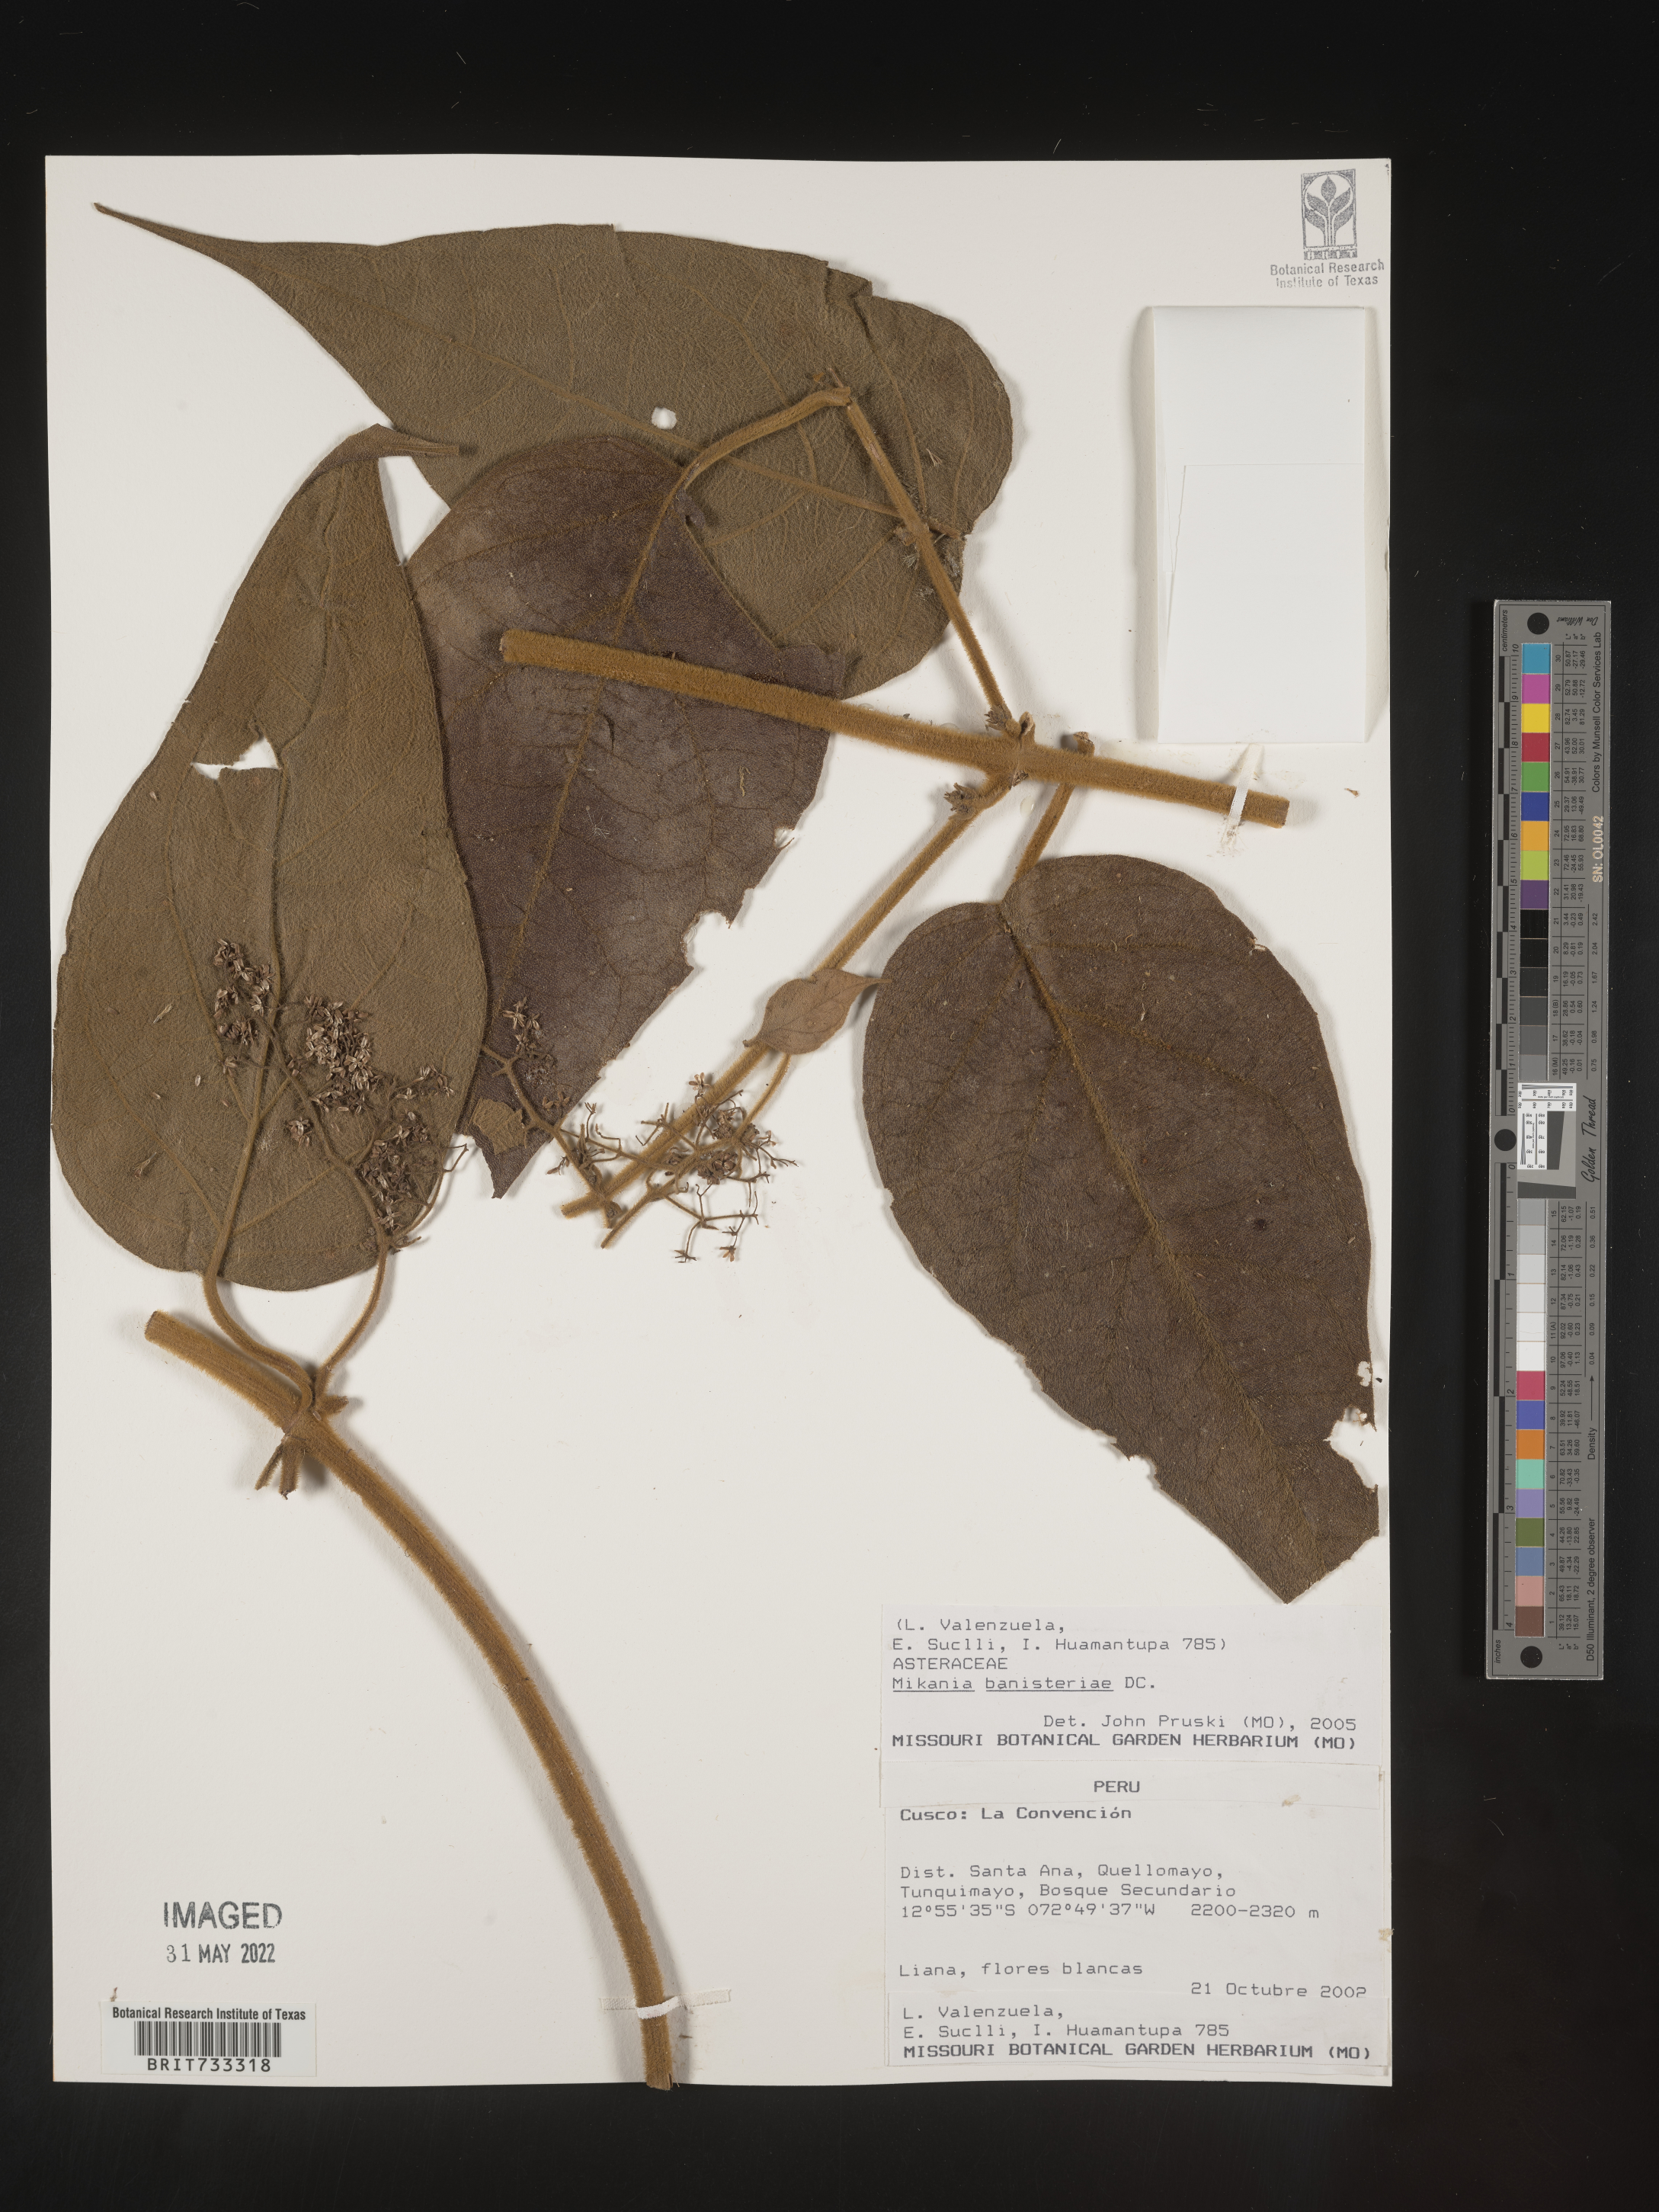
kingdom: Plantae
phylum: Tracheophyta
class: Magnoliopsida
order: Asterales
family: Asteraceae
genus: Mikania
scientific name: Mikania
